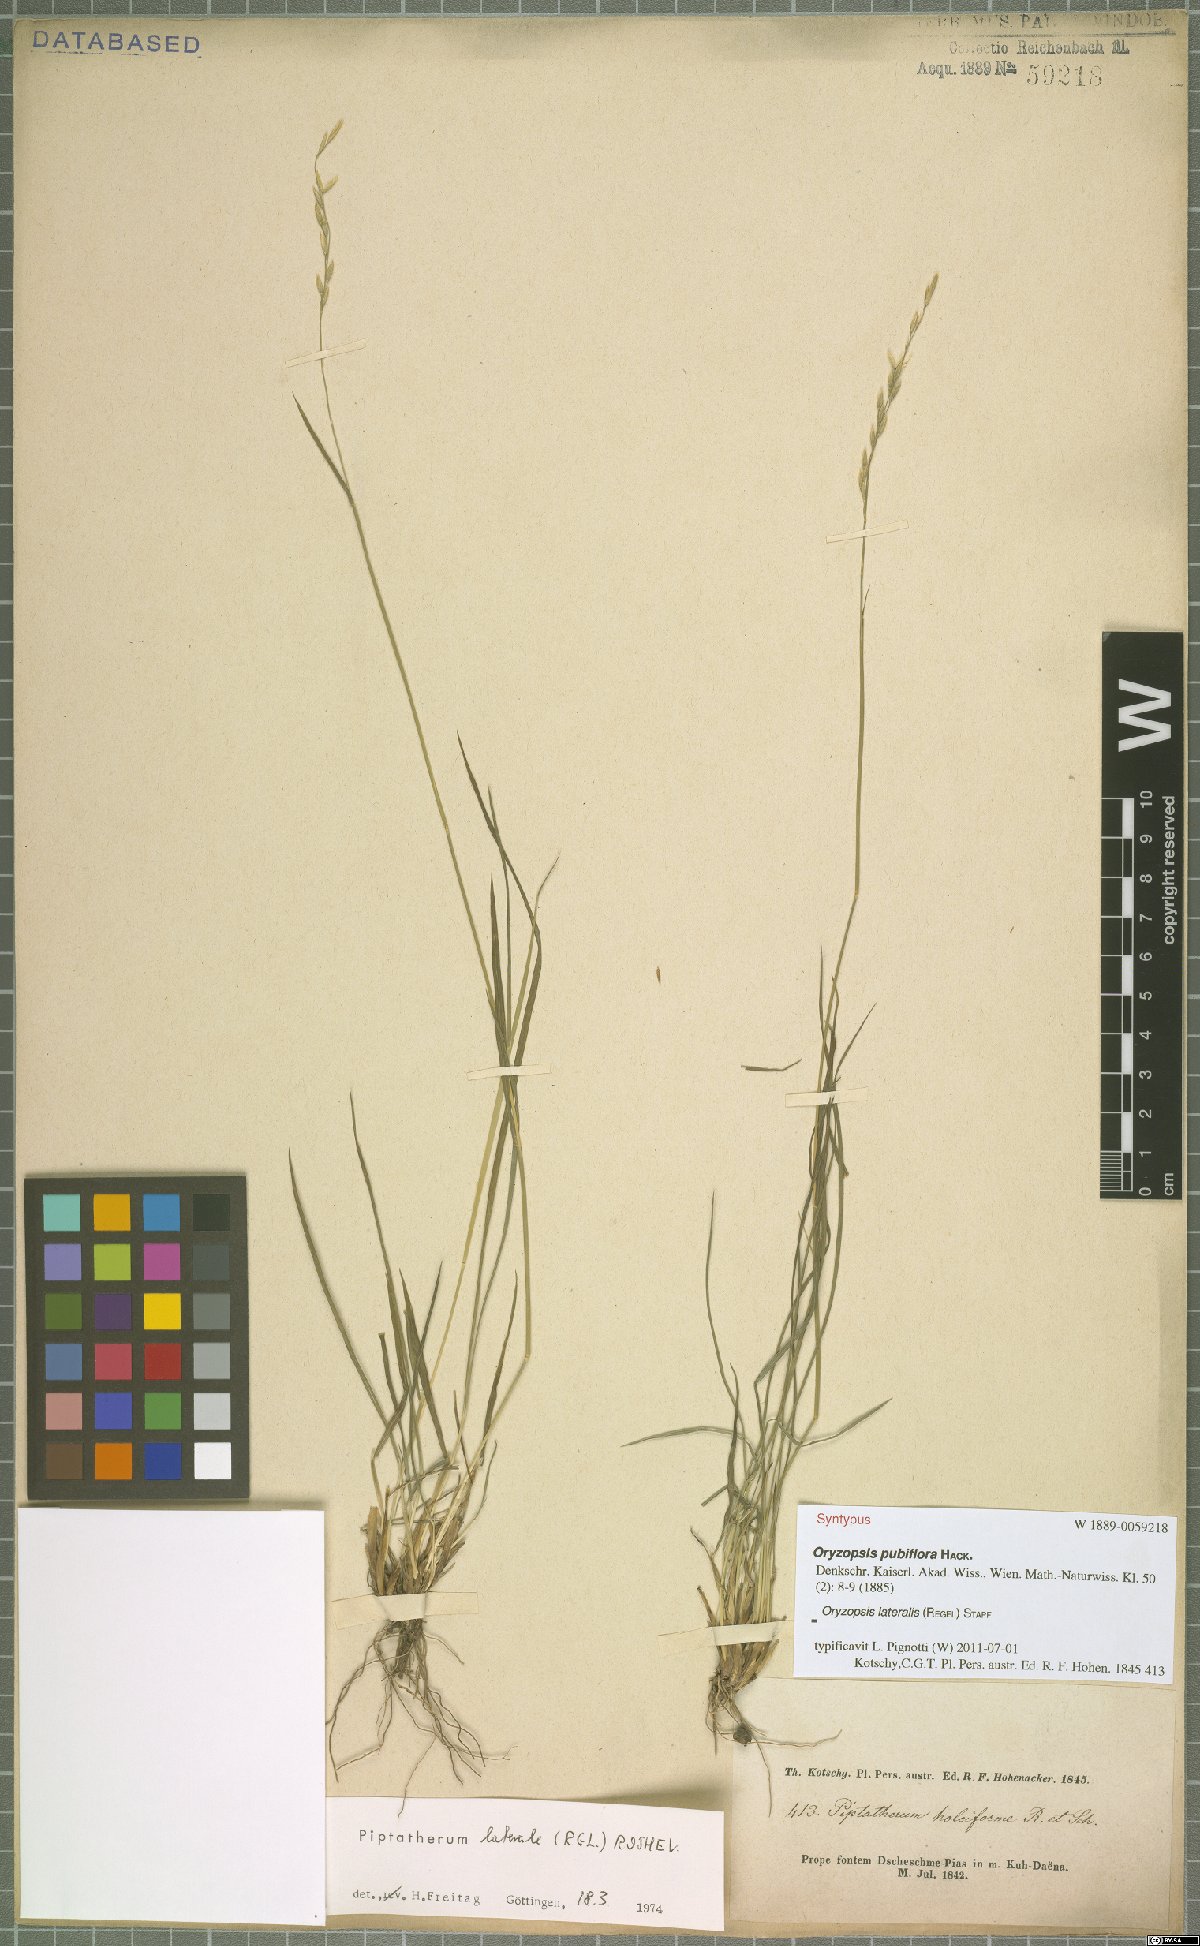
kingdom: Plantae
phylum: Tracheophyta
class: Liliopsida
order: Poales
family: Poaceae
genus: Piptatherum
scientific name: Piptatherum laterale
